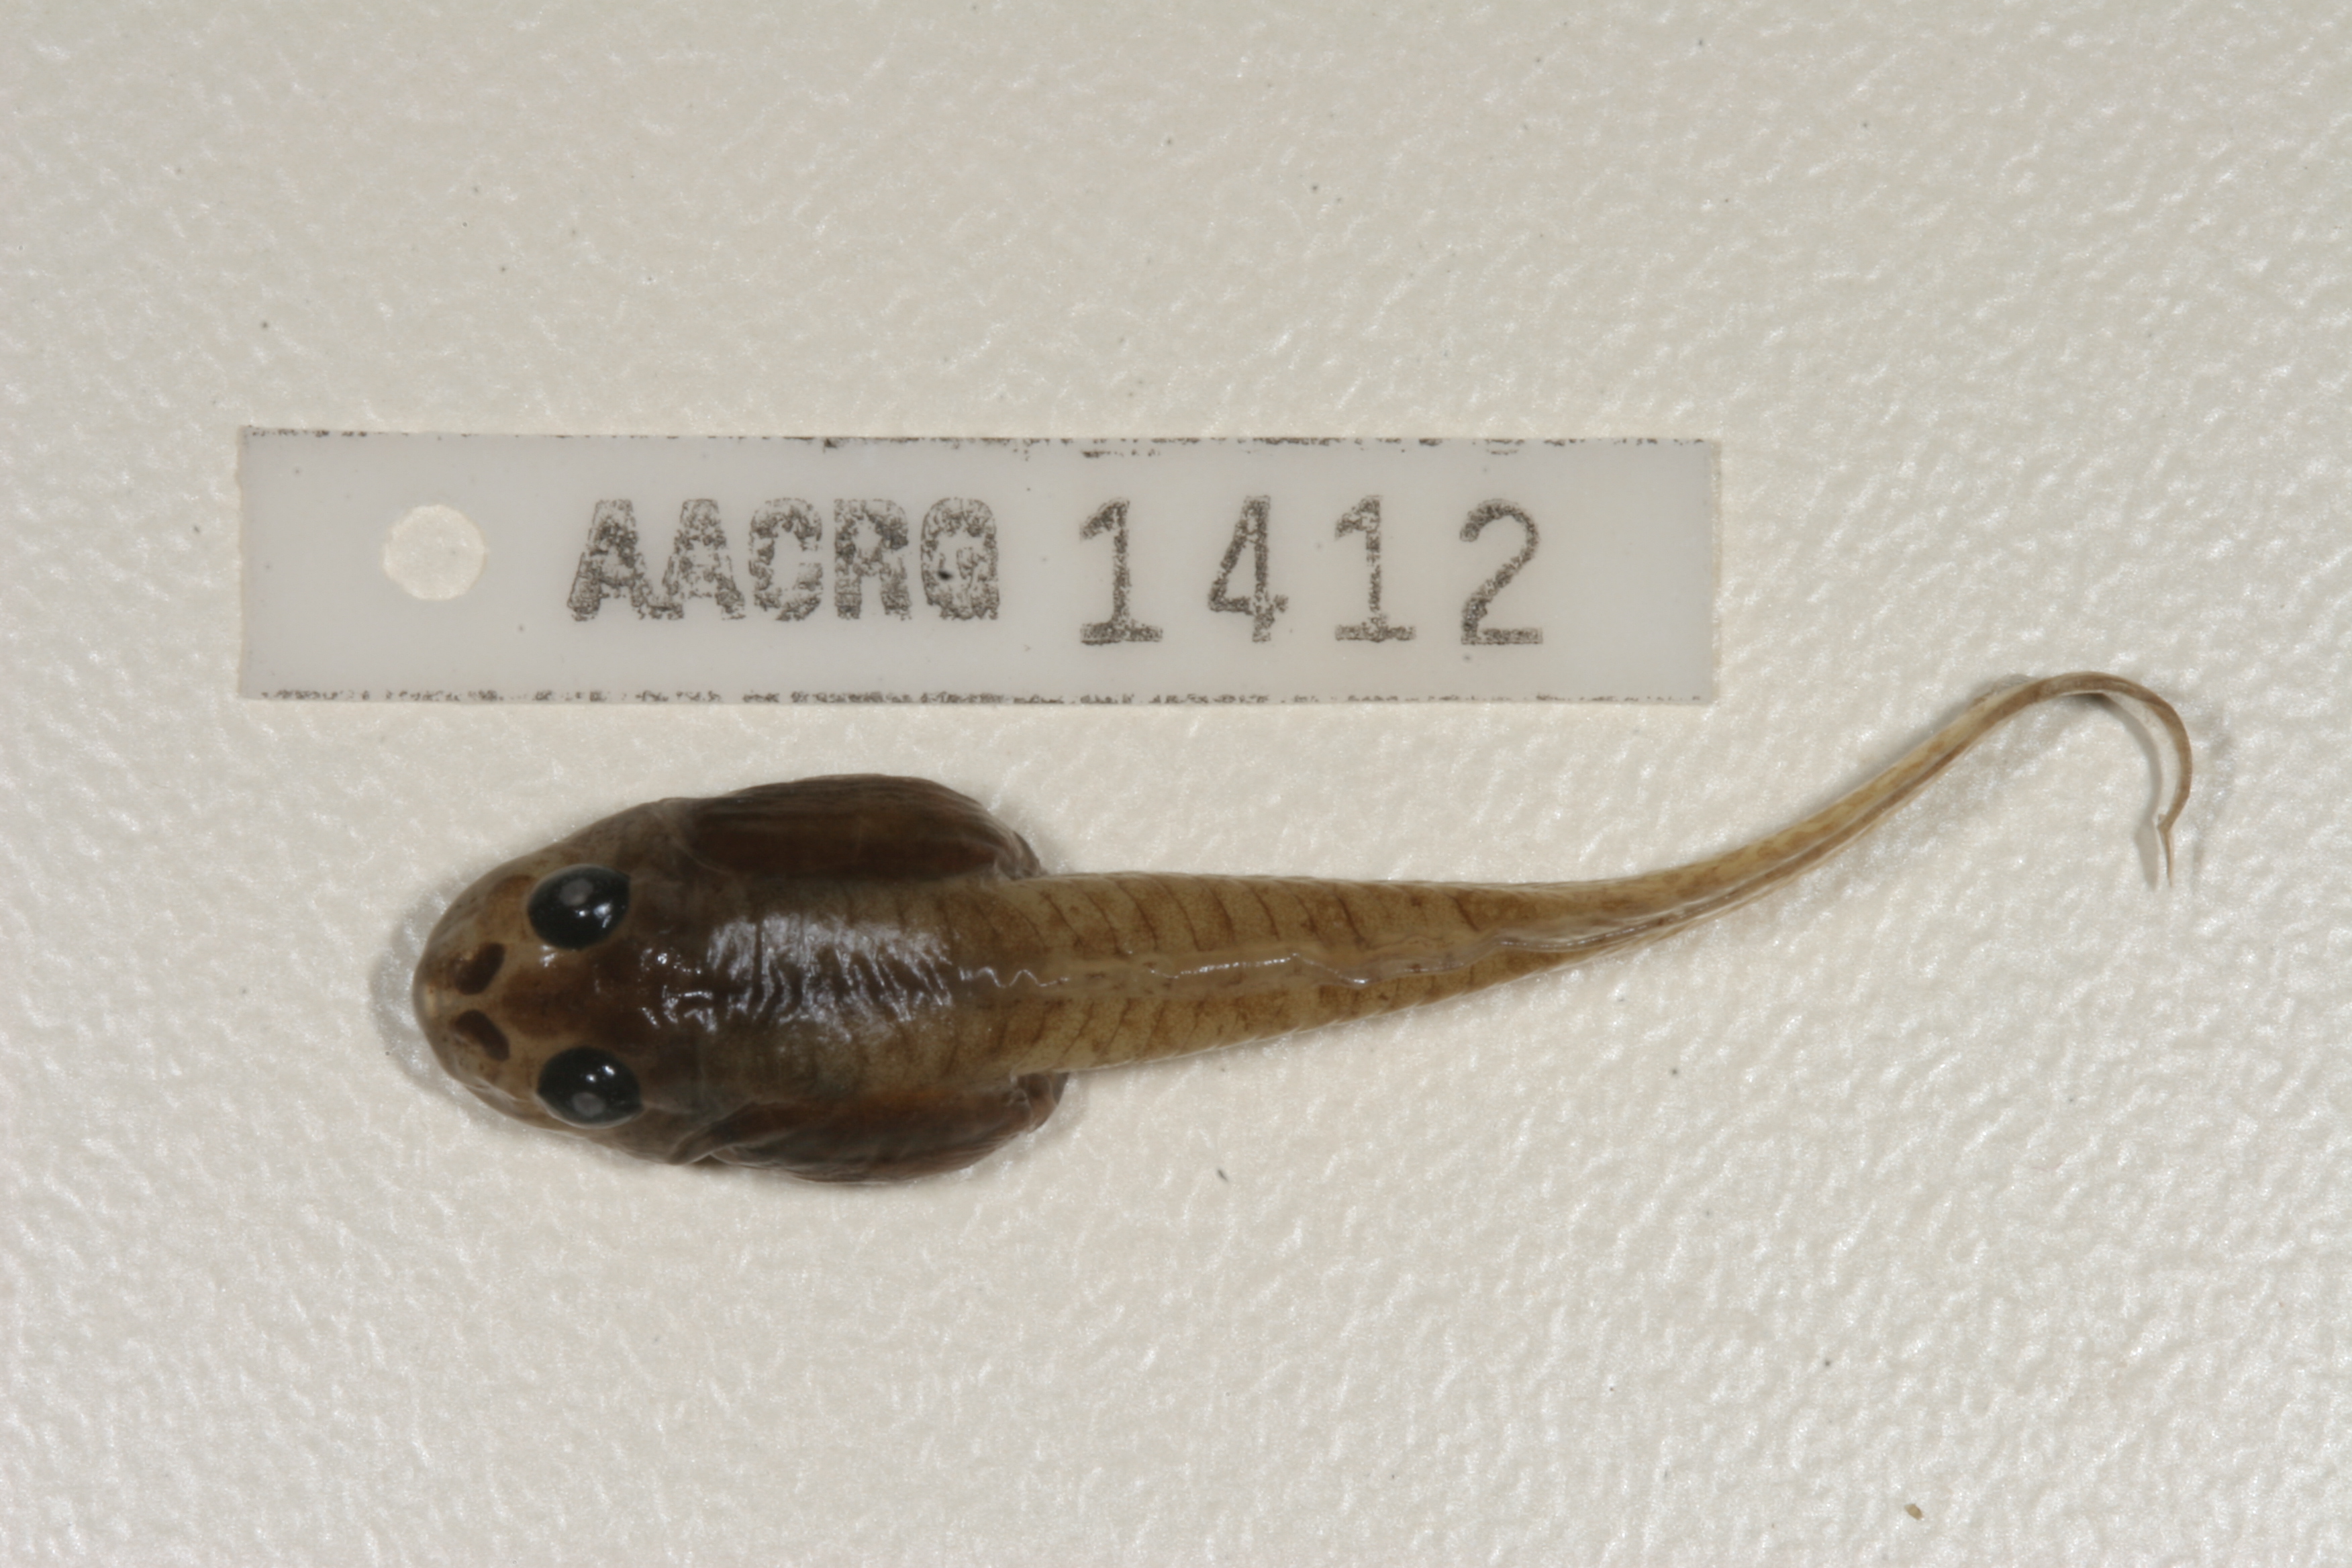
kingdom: Animalia
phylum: Chordata
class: Amphibia
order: Anura
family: Pyxicephalidae
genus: Amietia
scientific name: Amietia angolensis
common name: Dusky-throated frog
